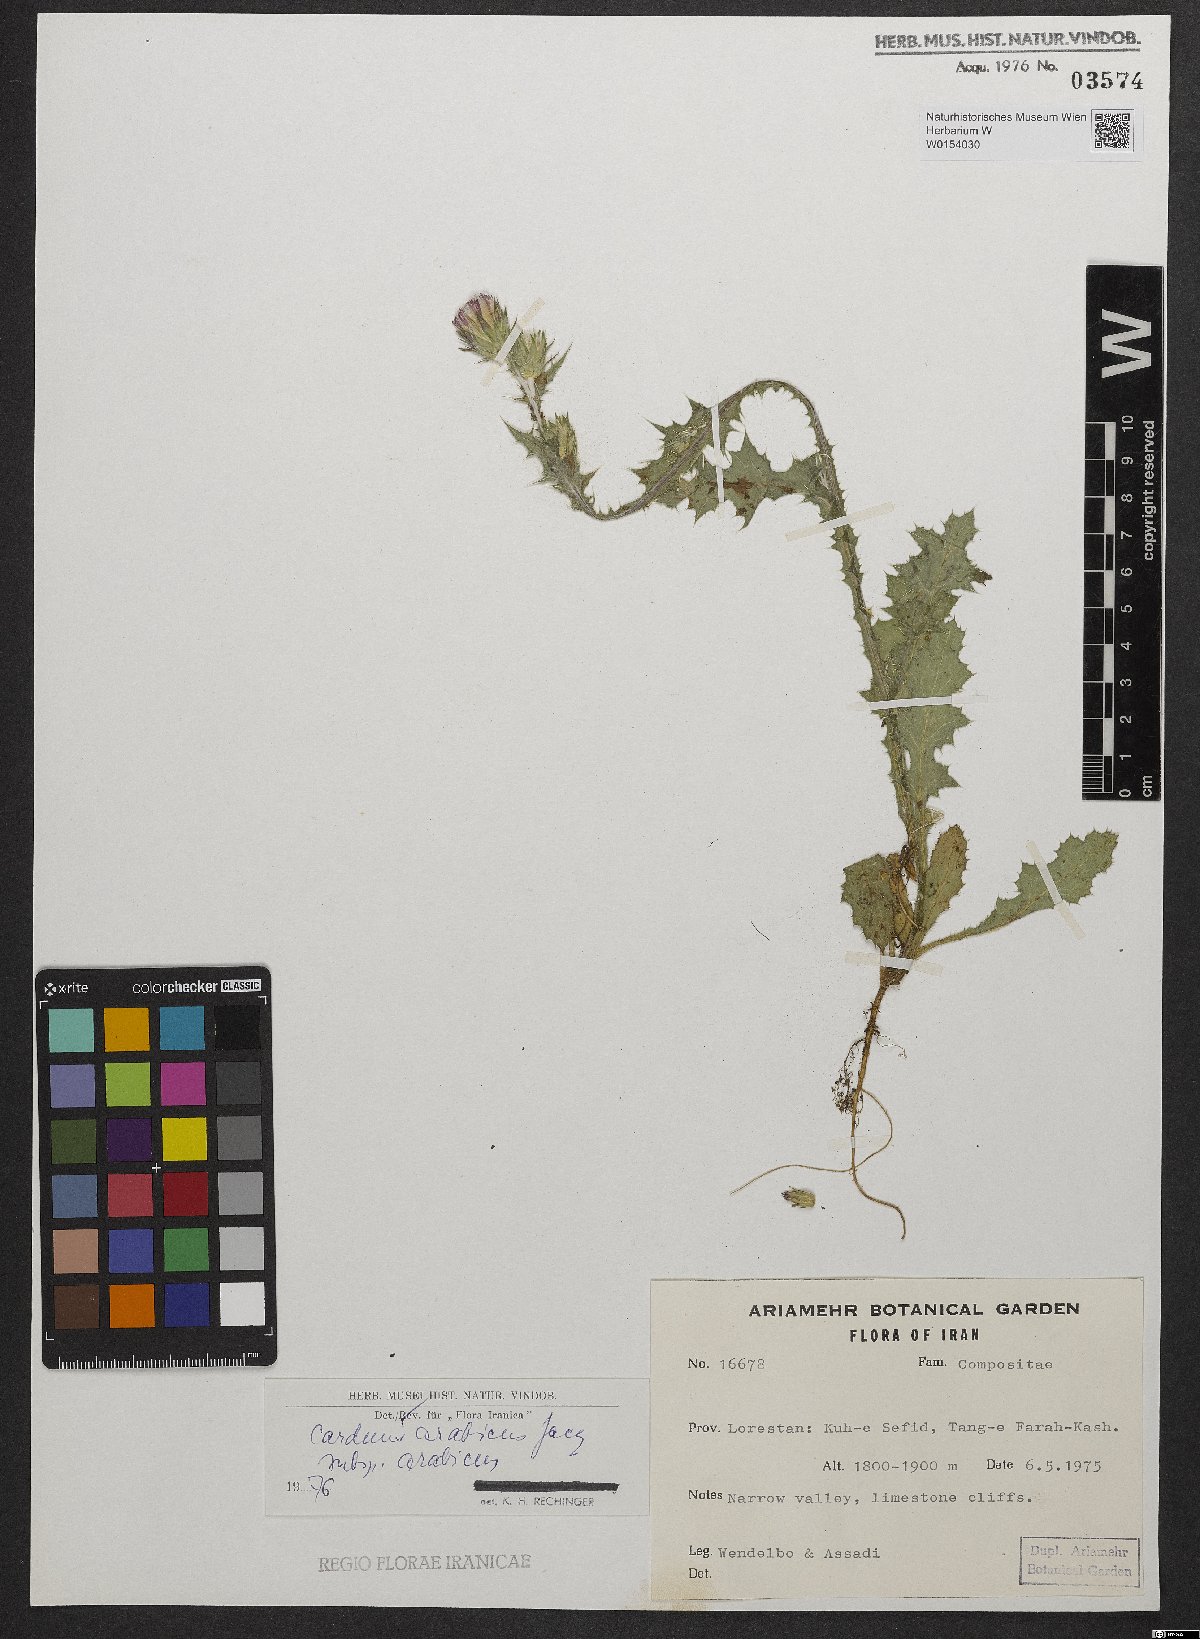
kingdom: Plantae
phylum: Tracheophyta
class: Magnoliopsida
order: Asterales
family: Asteraceae
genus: Carduus
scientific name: Carduus arabicus
